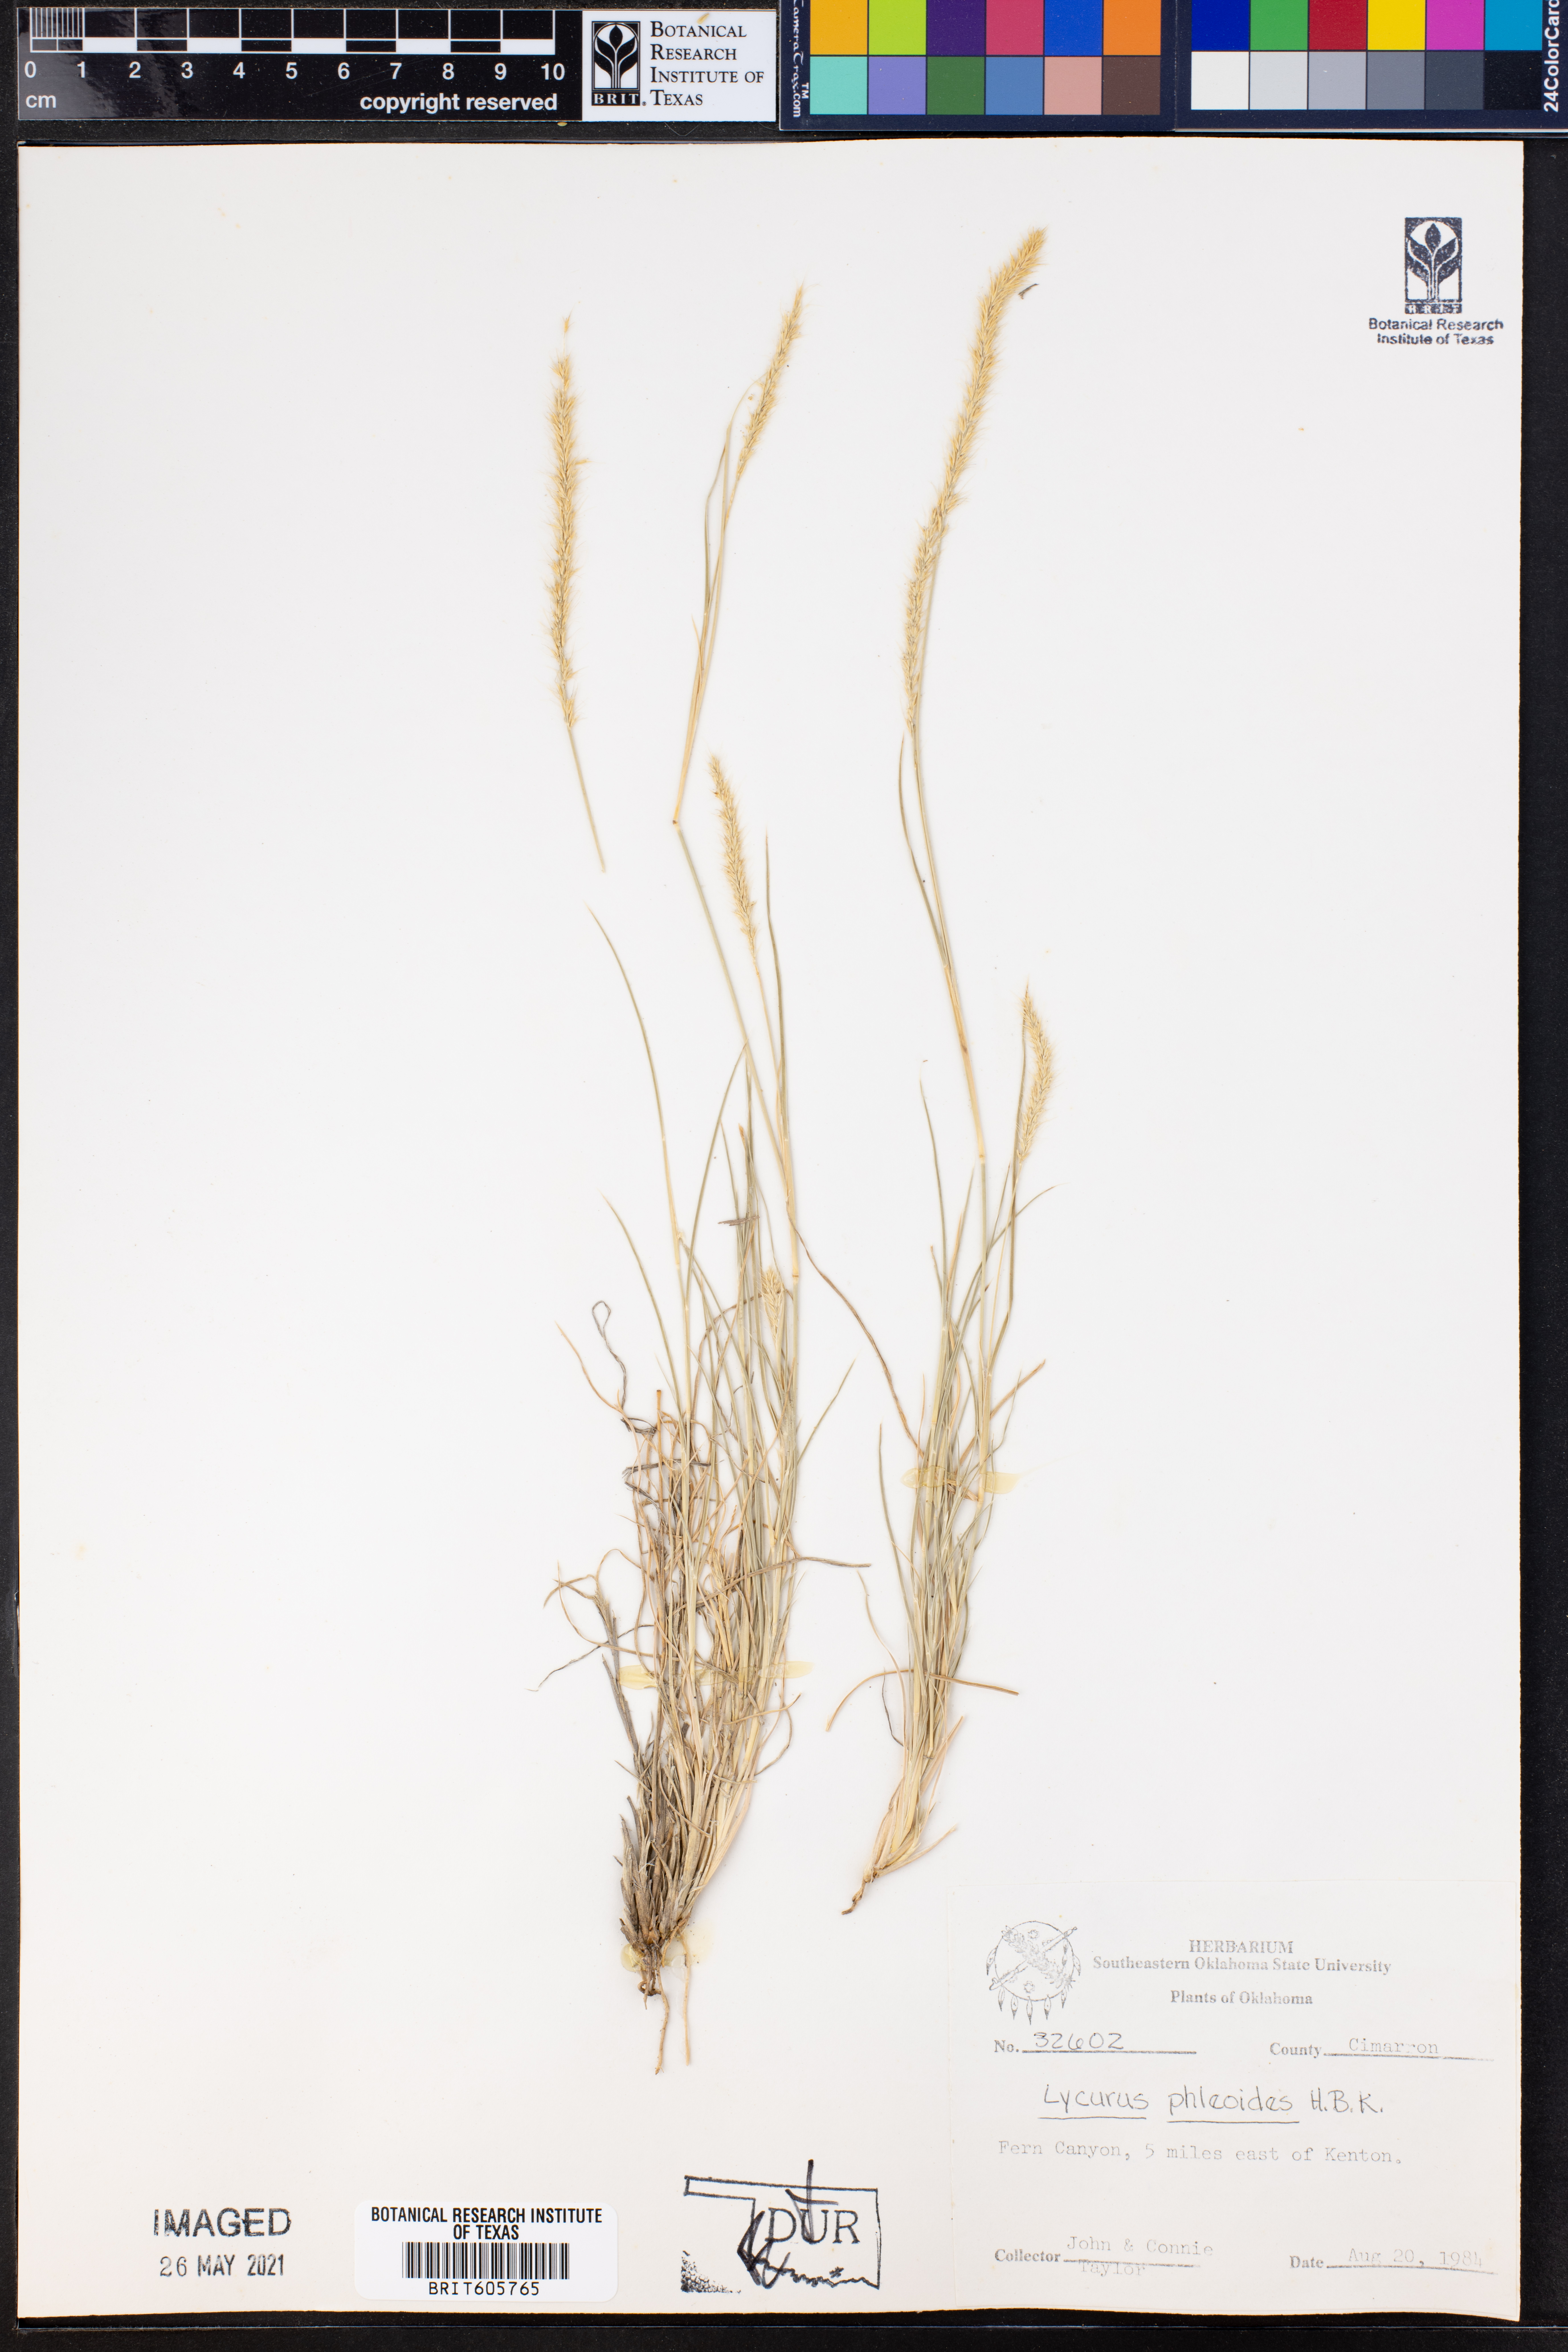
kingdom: Plantae
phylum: Tracheophyta
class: Liliopsida
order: Poales
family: Poaceae
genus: Muhlenbergia
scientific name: Muhlenbergia phleoides
